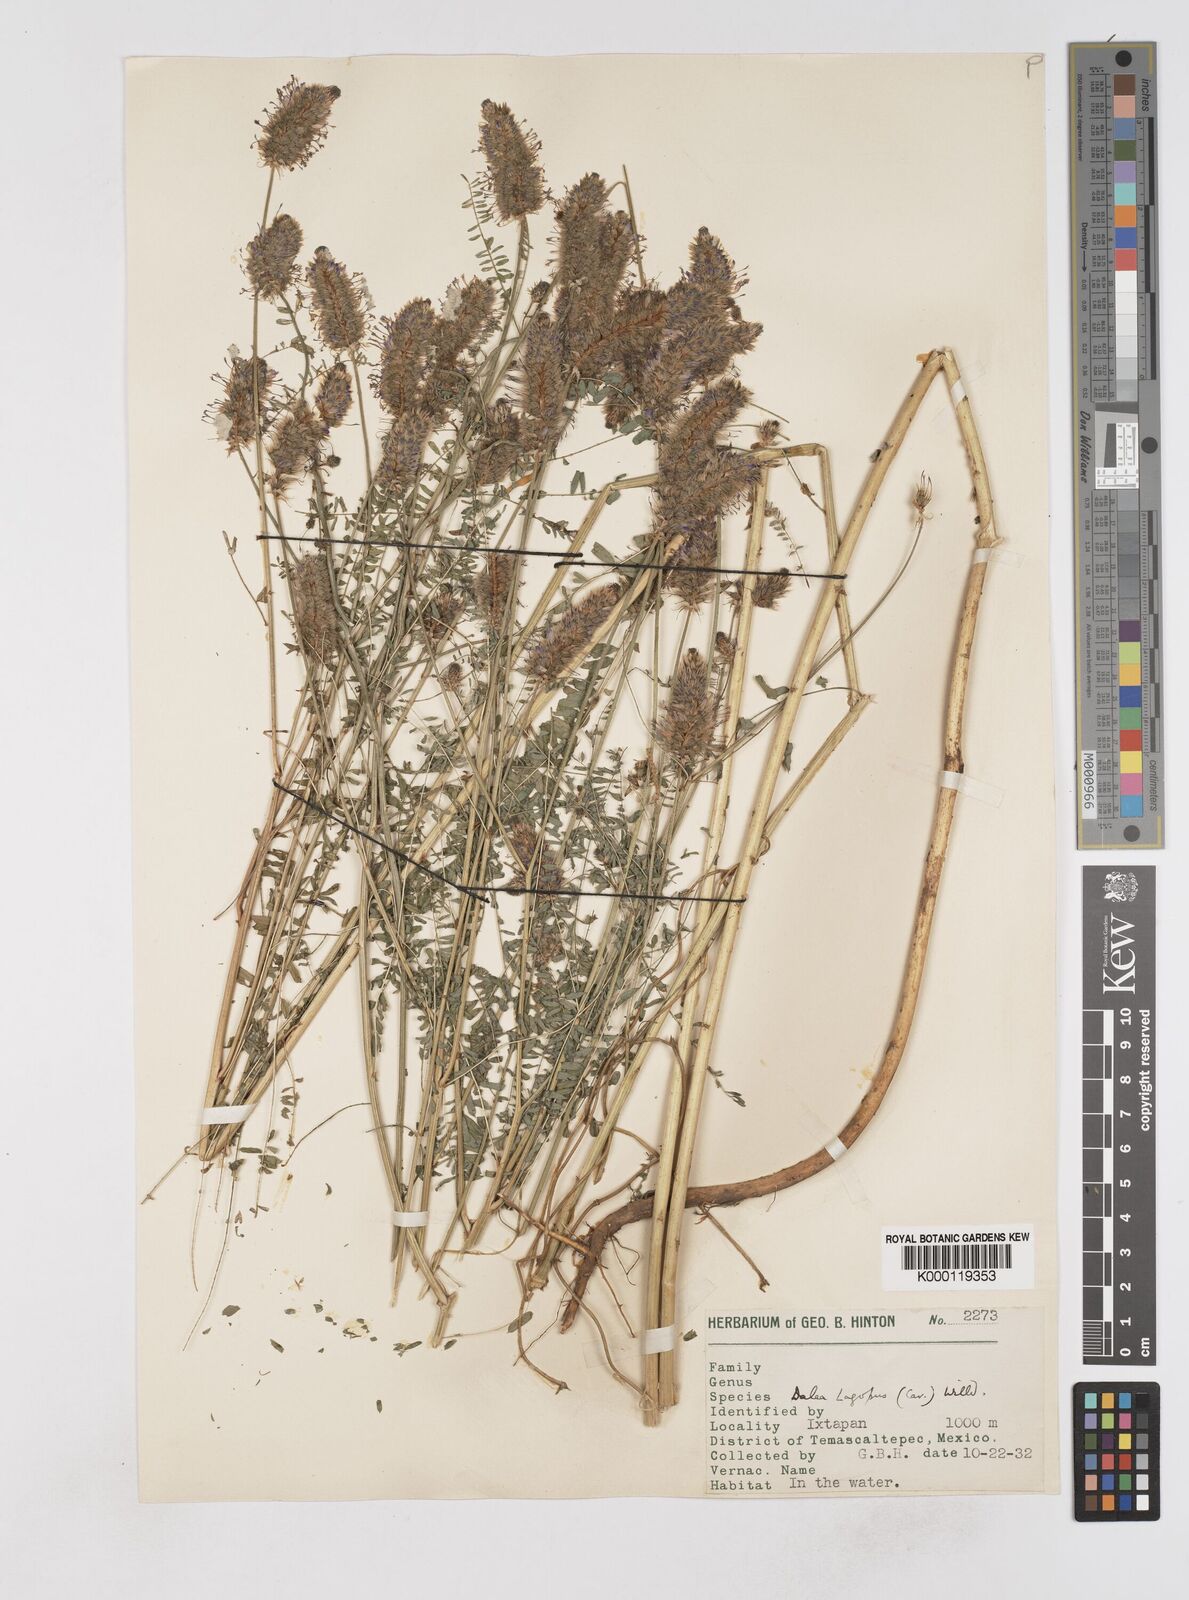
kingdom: Plantae
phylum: Tracheophyta
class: Magnoliopsida
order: Fabales
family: Fabaceae
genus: Dalea
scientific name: Dalea leporina
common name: Foxtail dalea
